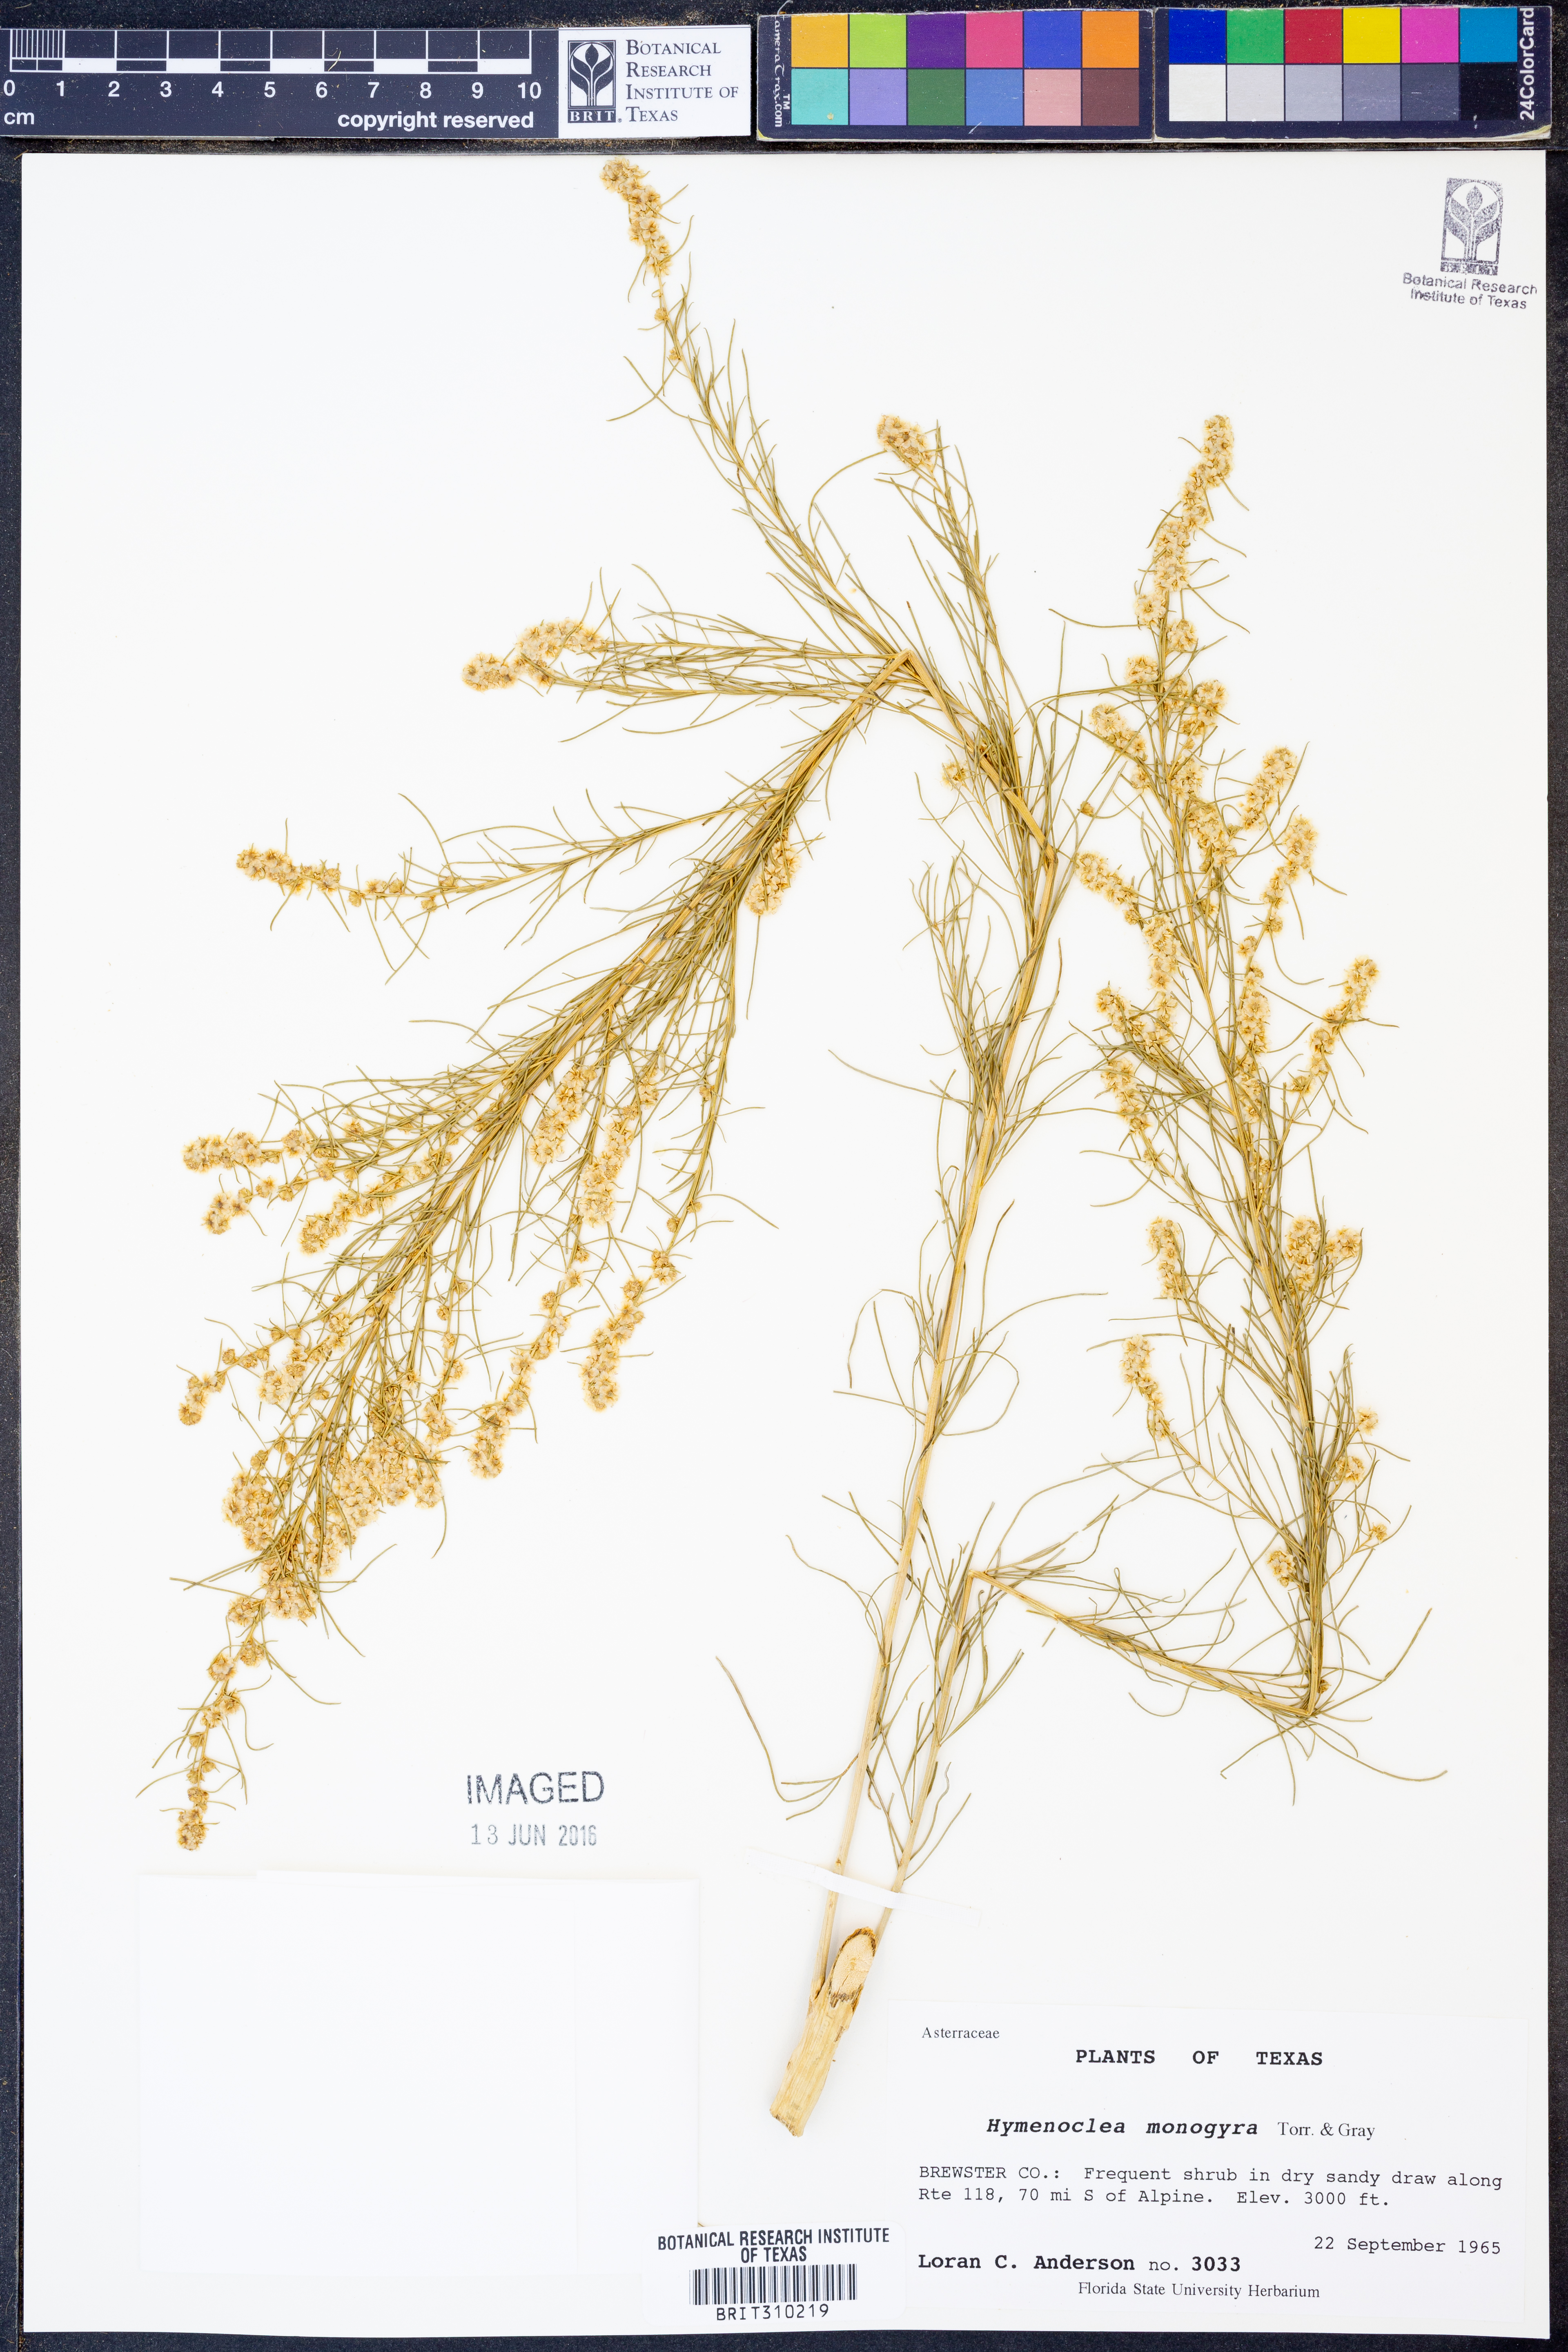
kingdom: Plantae
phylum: Tracheophyta
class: Magnoliopsida
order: Asterales
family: Asteraceae
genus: Ambrosia
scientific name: Ambrosia monogyra
